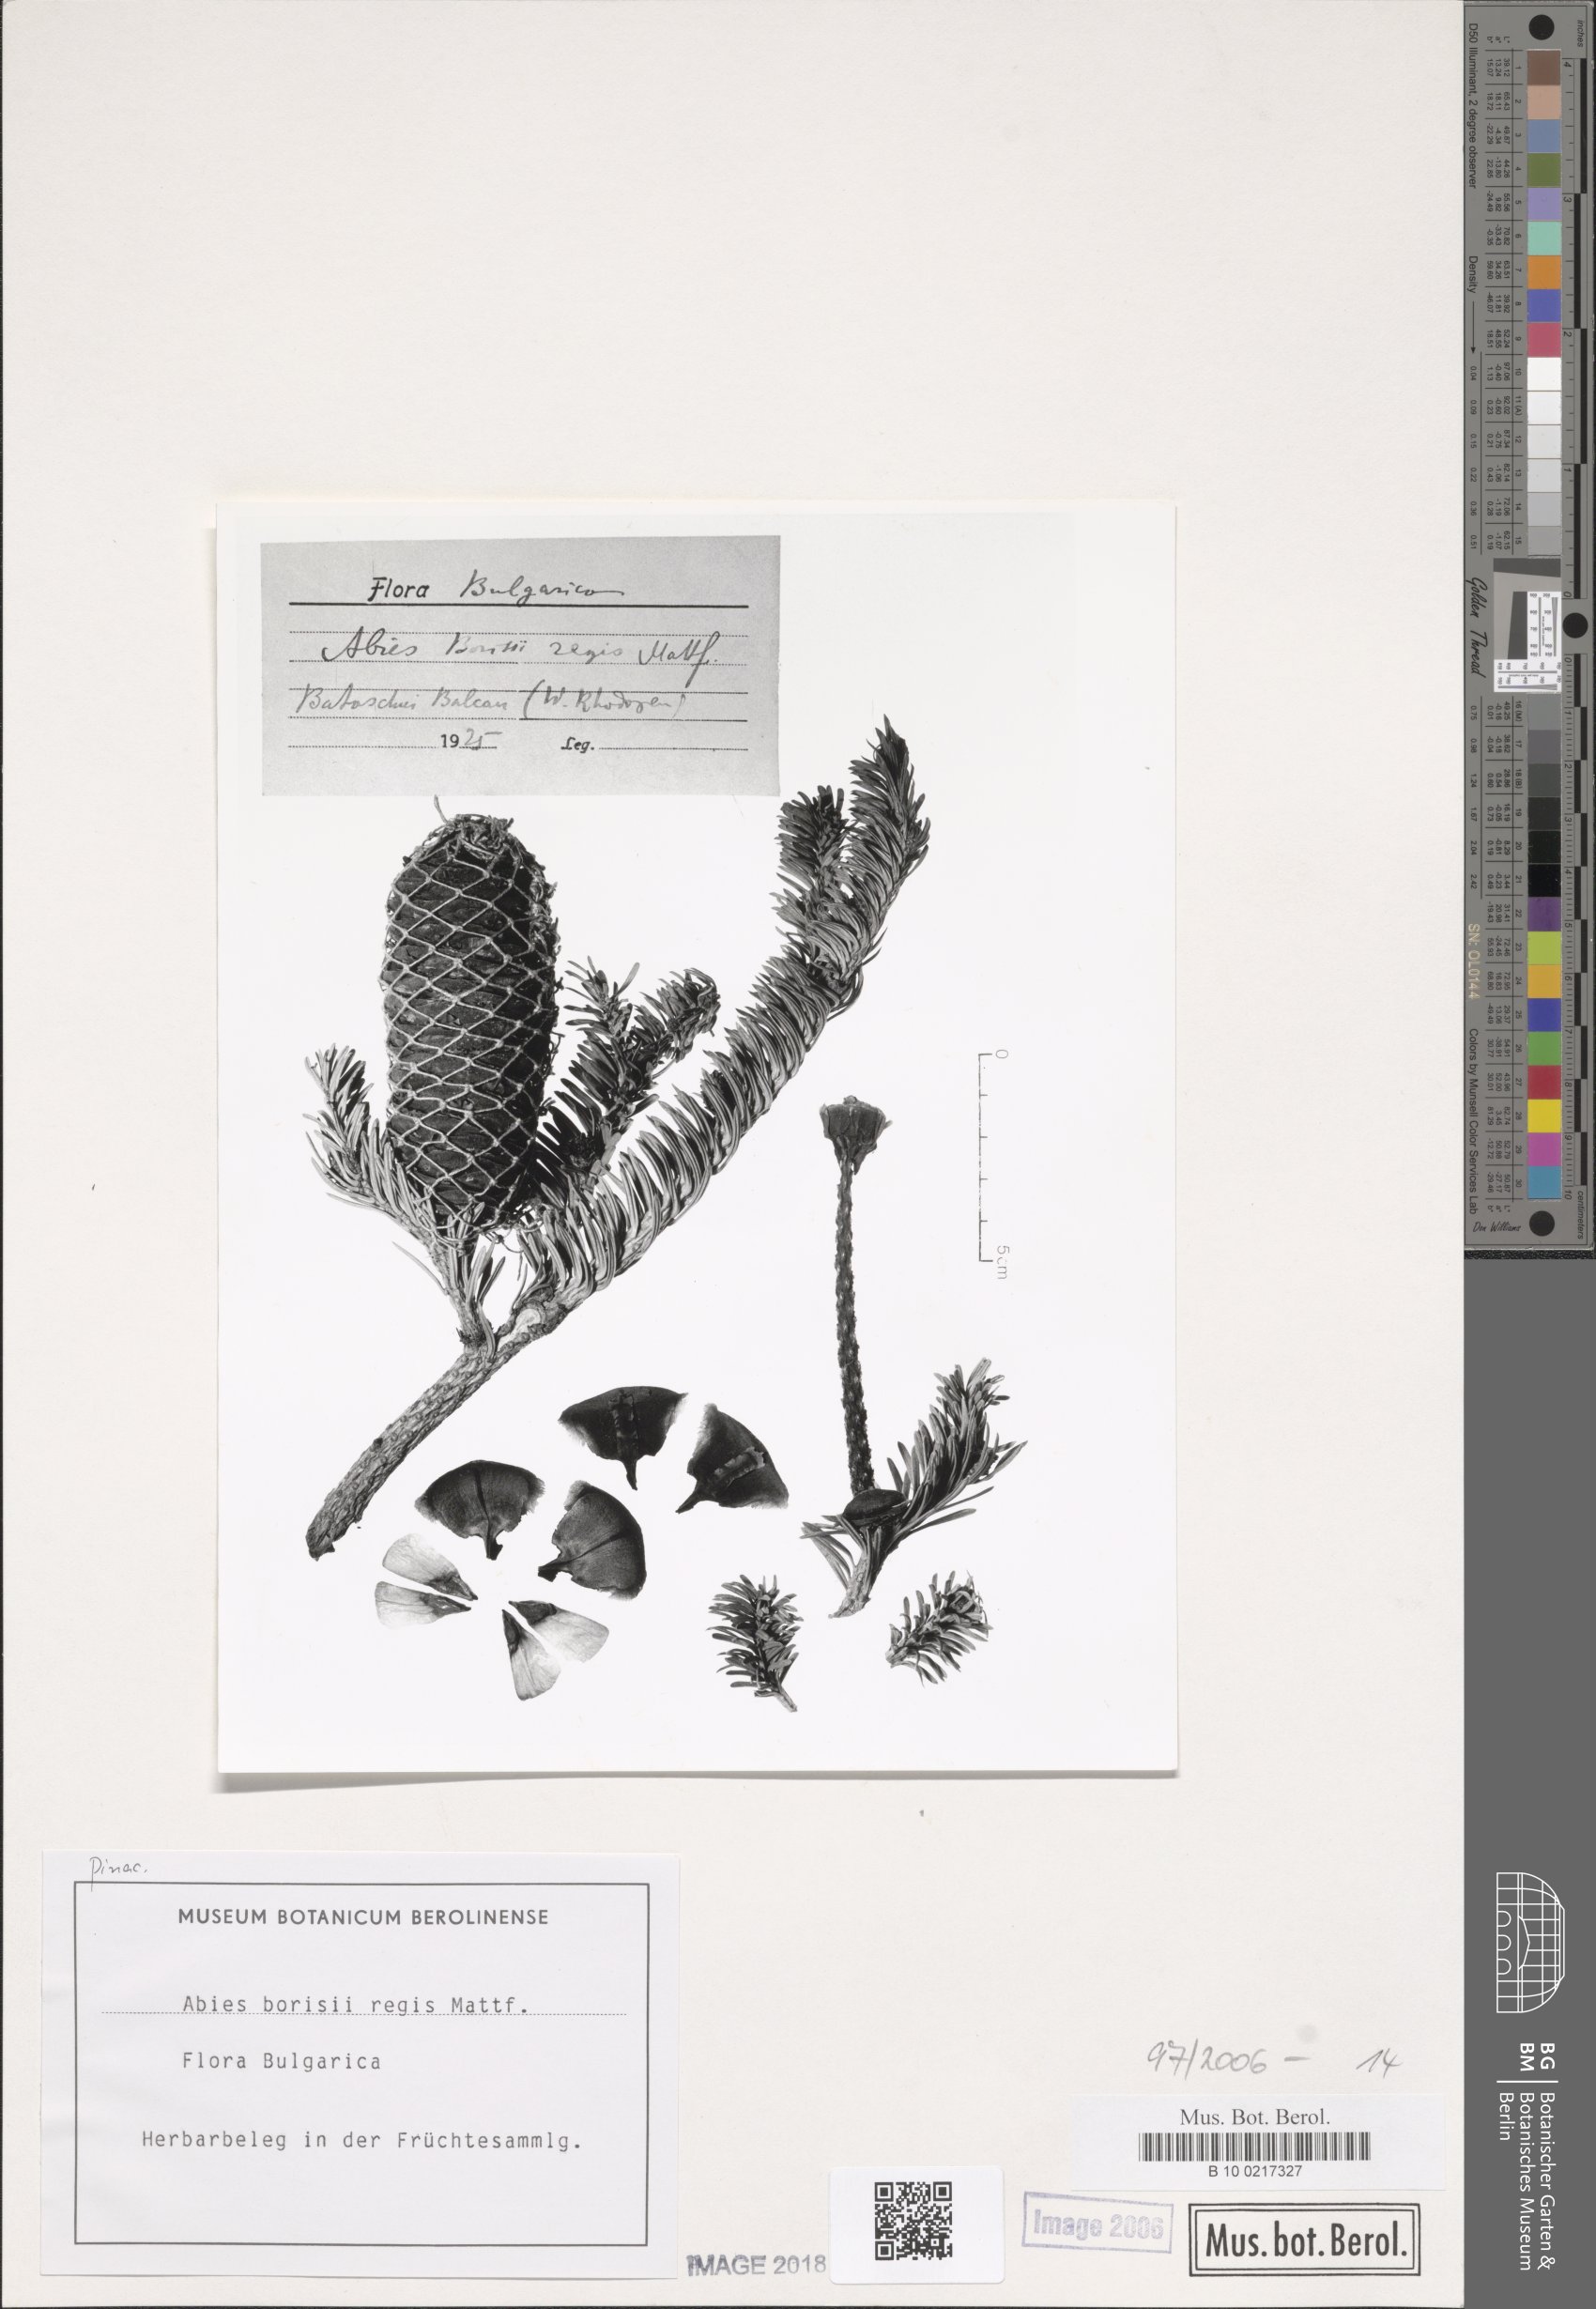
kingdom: Plantae
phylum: Tracheophyta
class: Pinopsida
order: Pinales
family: Pinaceae
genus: Abies
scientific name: Abies borisii-regis
